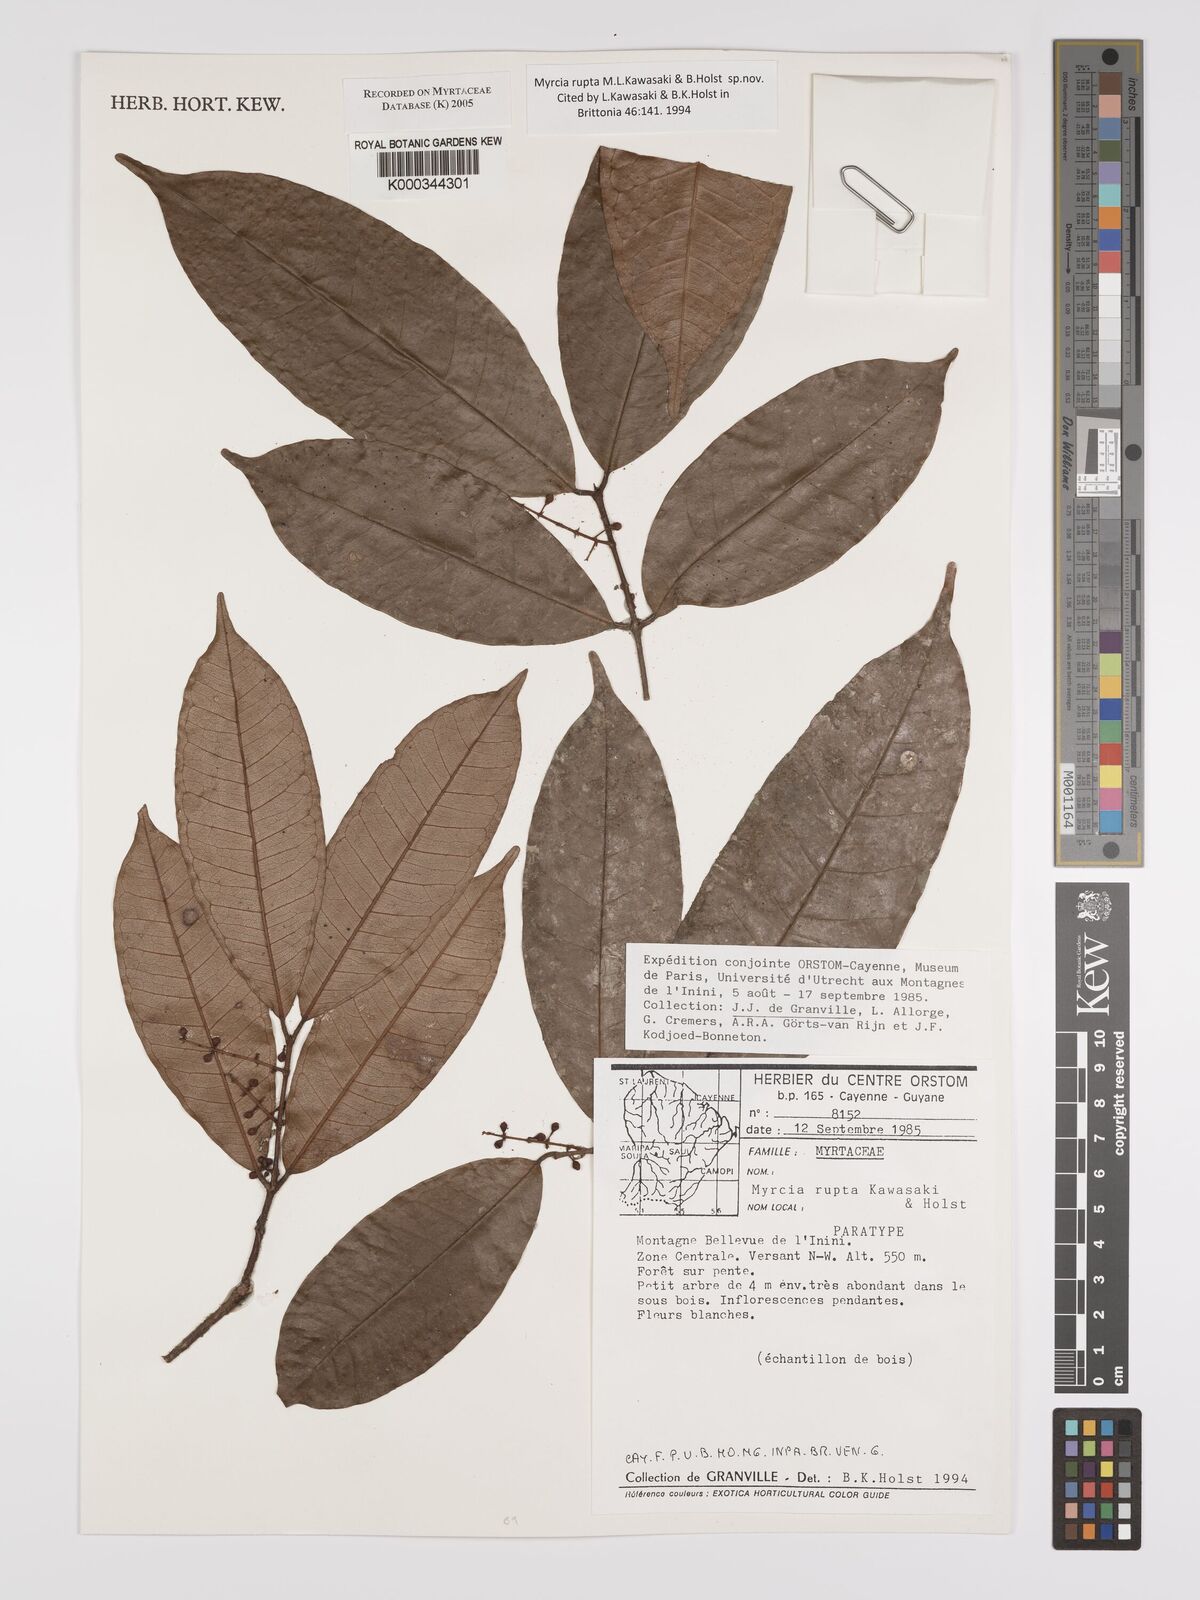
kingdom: Plantae
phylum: Tracheophyta
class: Magnoliopsida
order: Myrtales
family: Myrtaceae
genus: Myrcia
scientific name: Myrcia rupta
